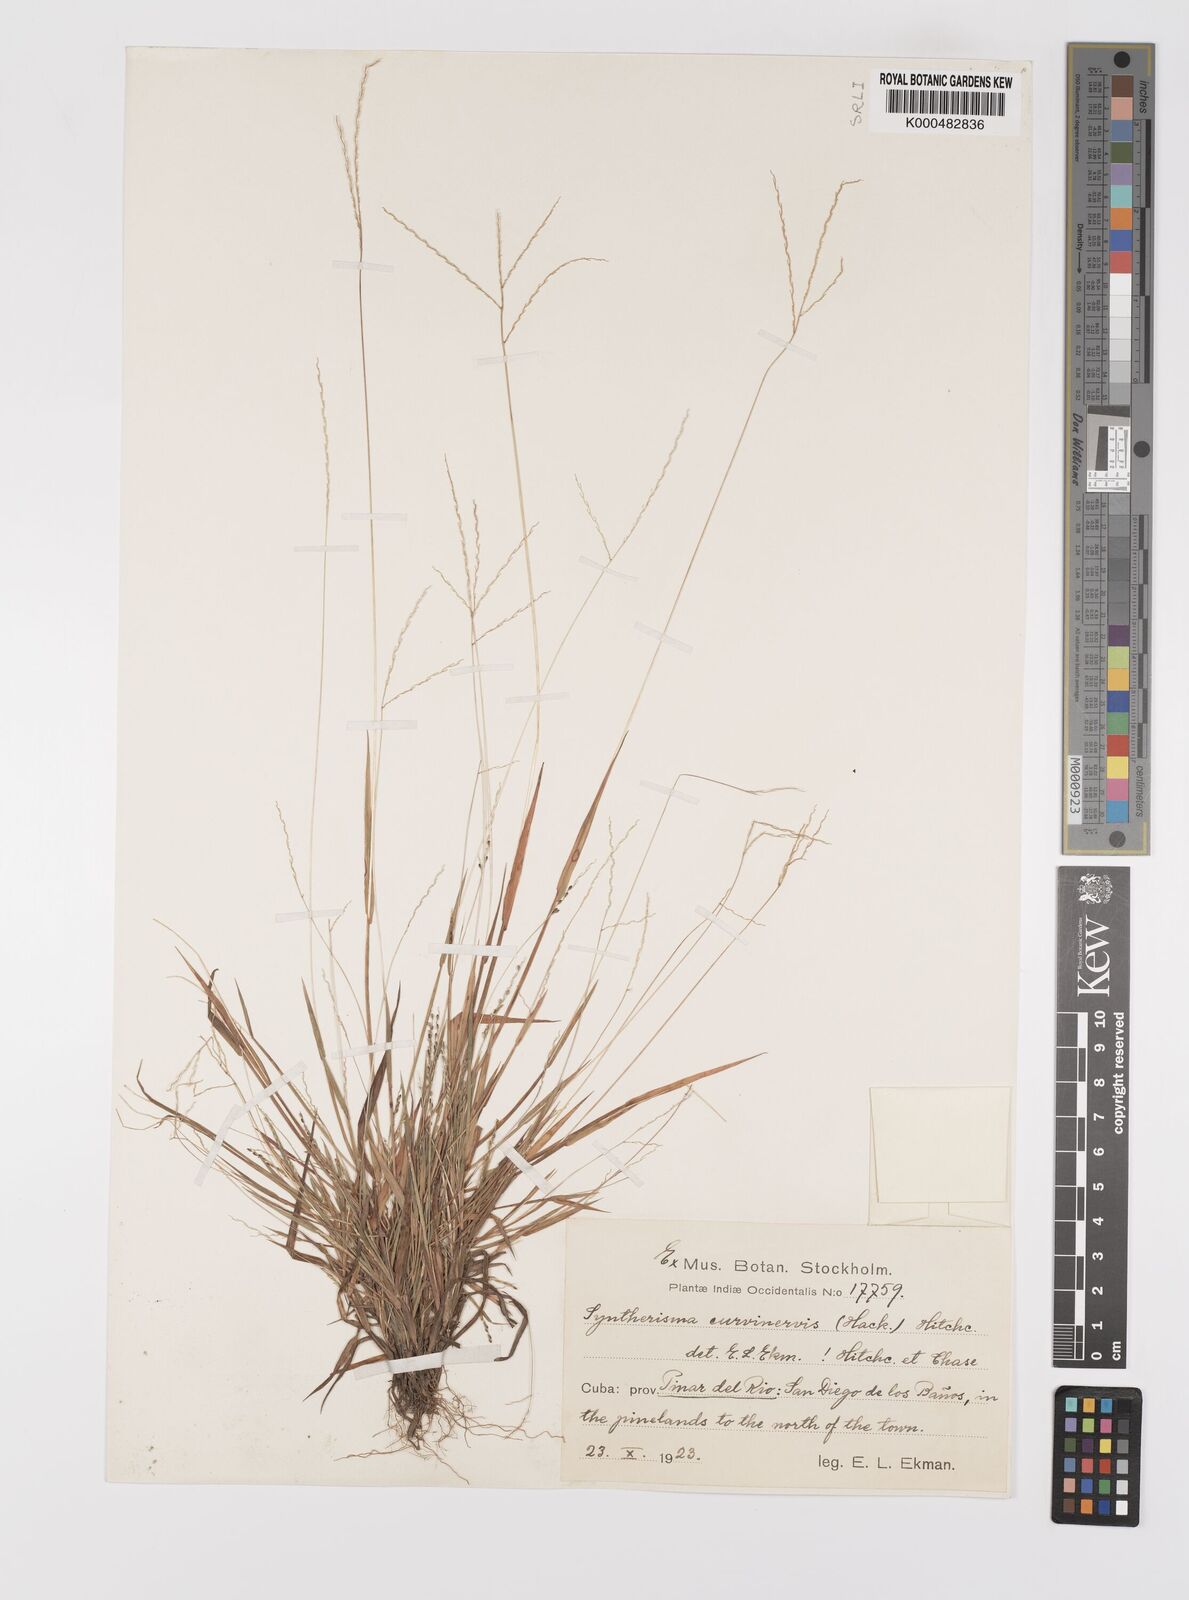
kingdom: Plantae
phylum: Tracheophyta
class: Liliopsida
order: Poales
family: Poaceae
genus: Digitaria
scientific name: Digitaria curvinervis
